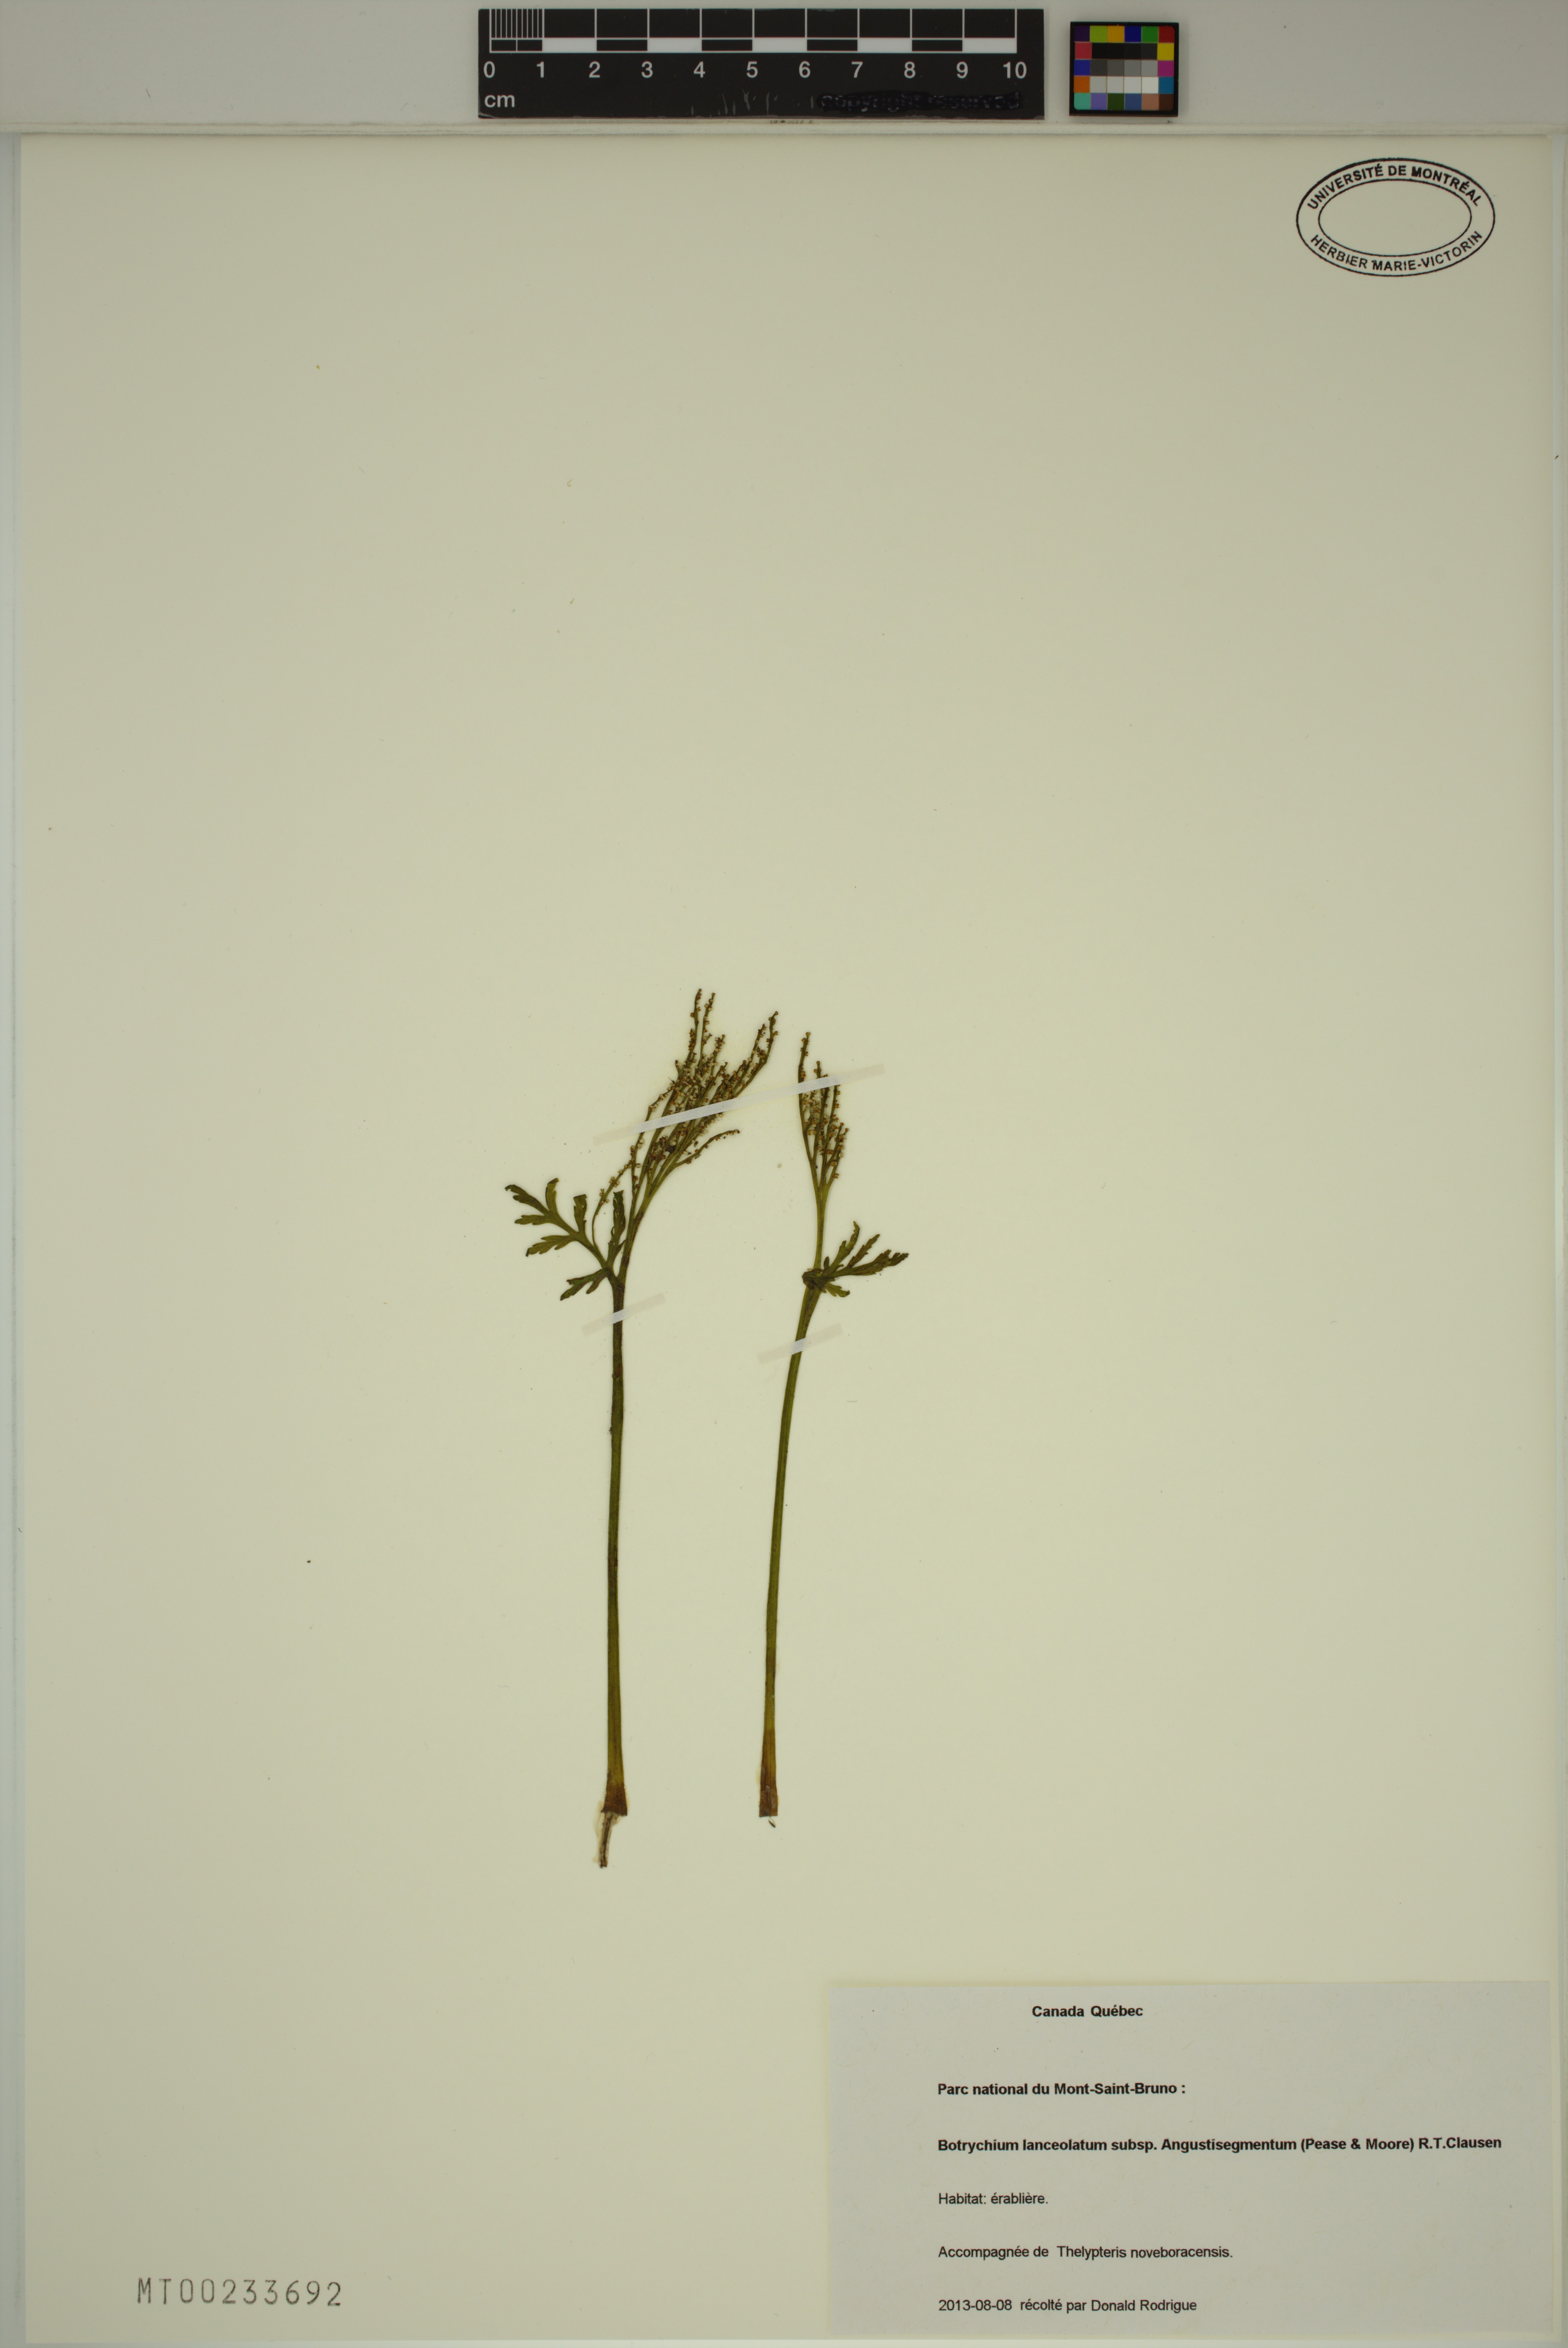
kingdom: Plantae
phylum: Tracheophyta
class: Polypodiopsida
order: Ophioglossales
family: Ophioglossaceae
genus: Botrychium
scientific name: Botrychium angustisegmentum
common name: Narrow triangle moonwort
